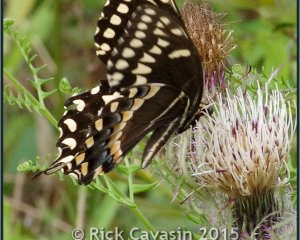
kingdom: Animalia
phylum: Arthropoda
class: Insecta
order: Lepidoptera
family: Papilionidae
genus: Pterourus
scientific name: Pterourus palamedes
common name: Palamedes Swallowtail
